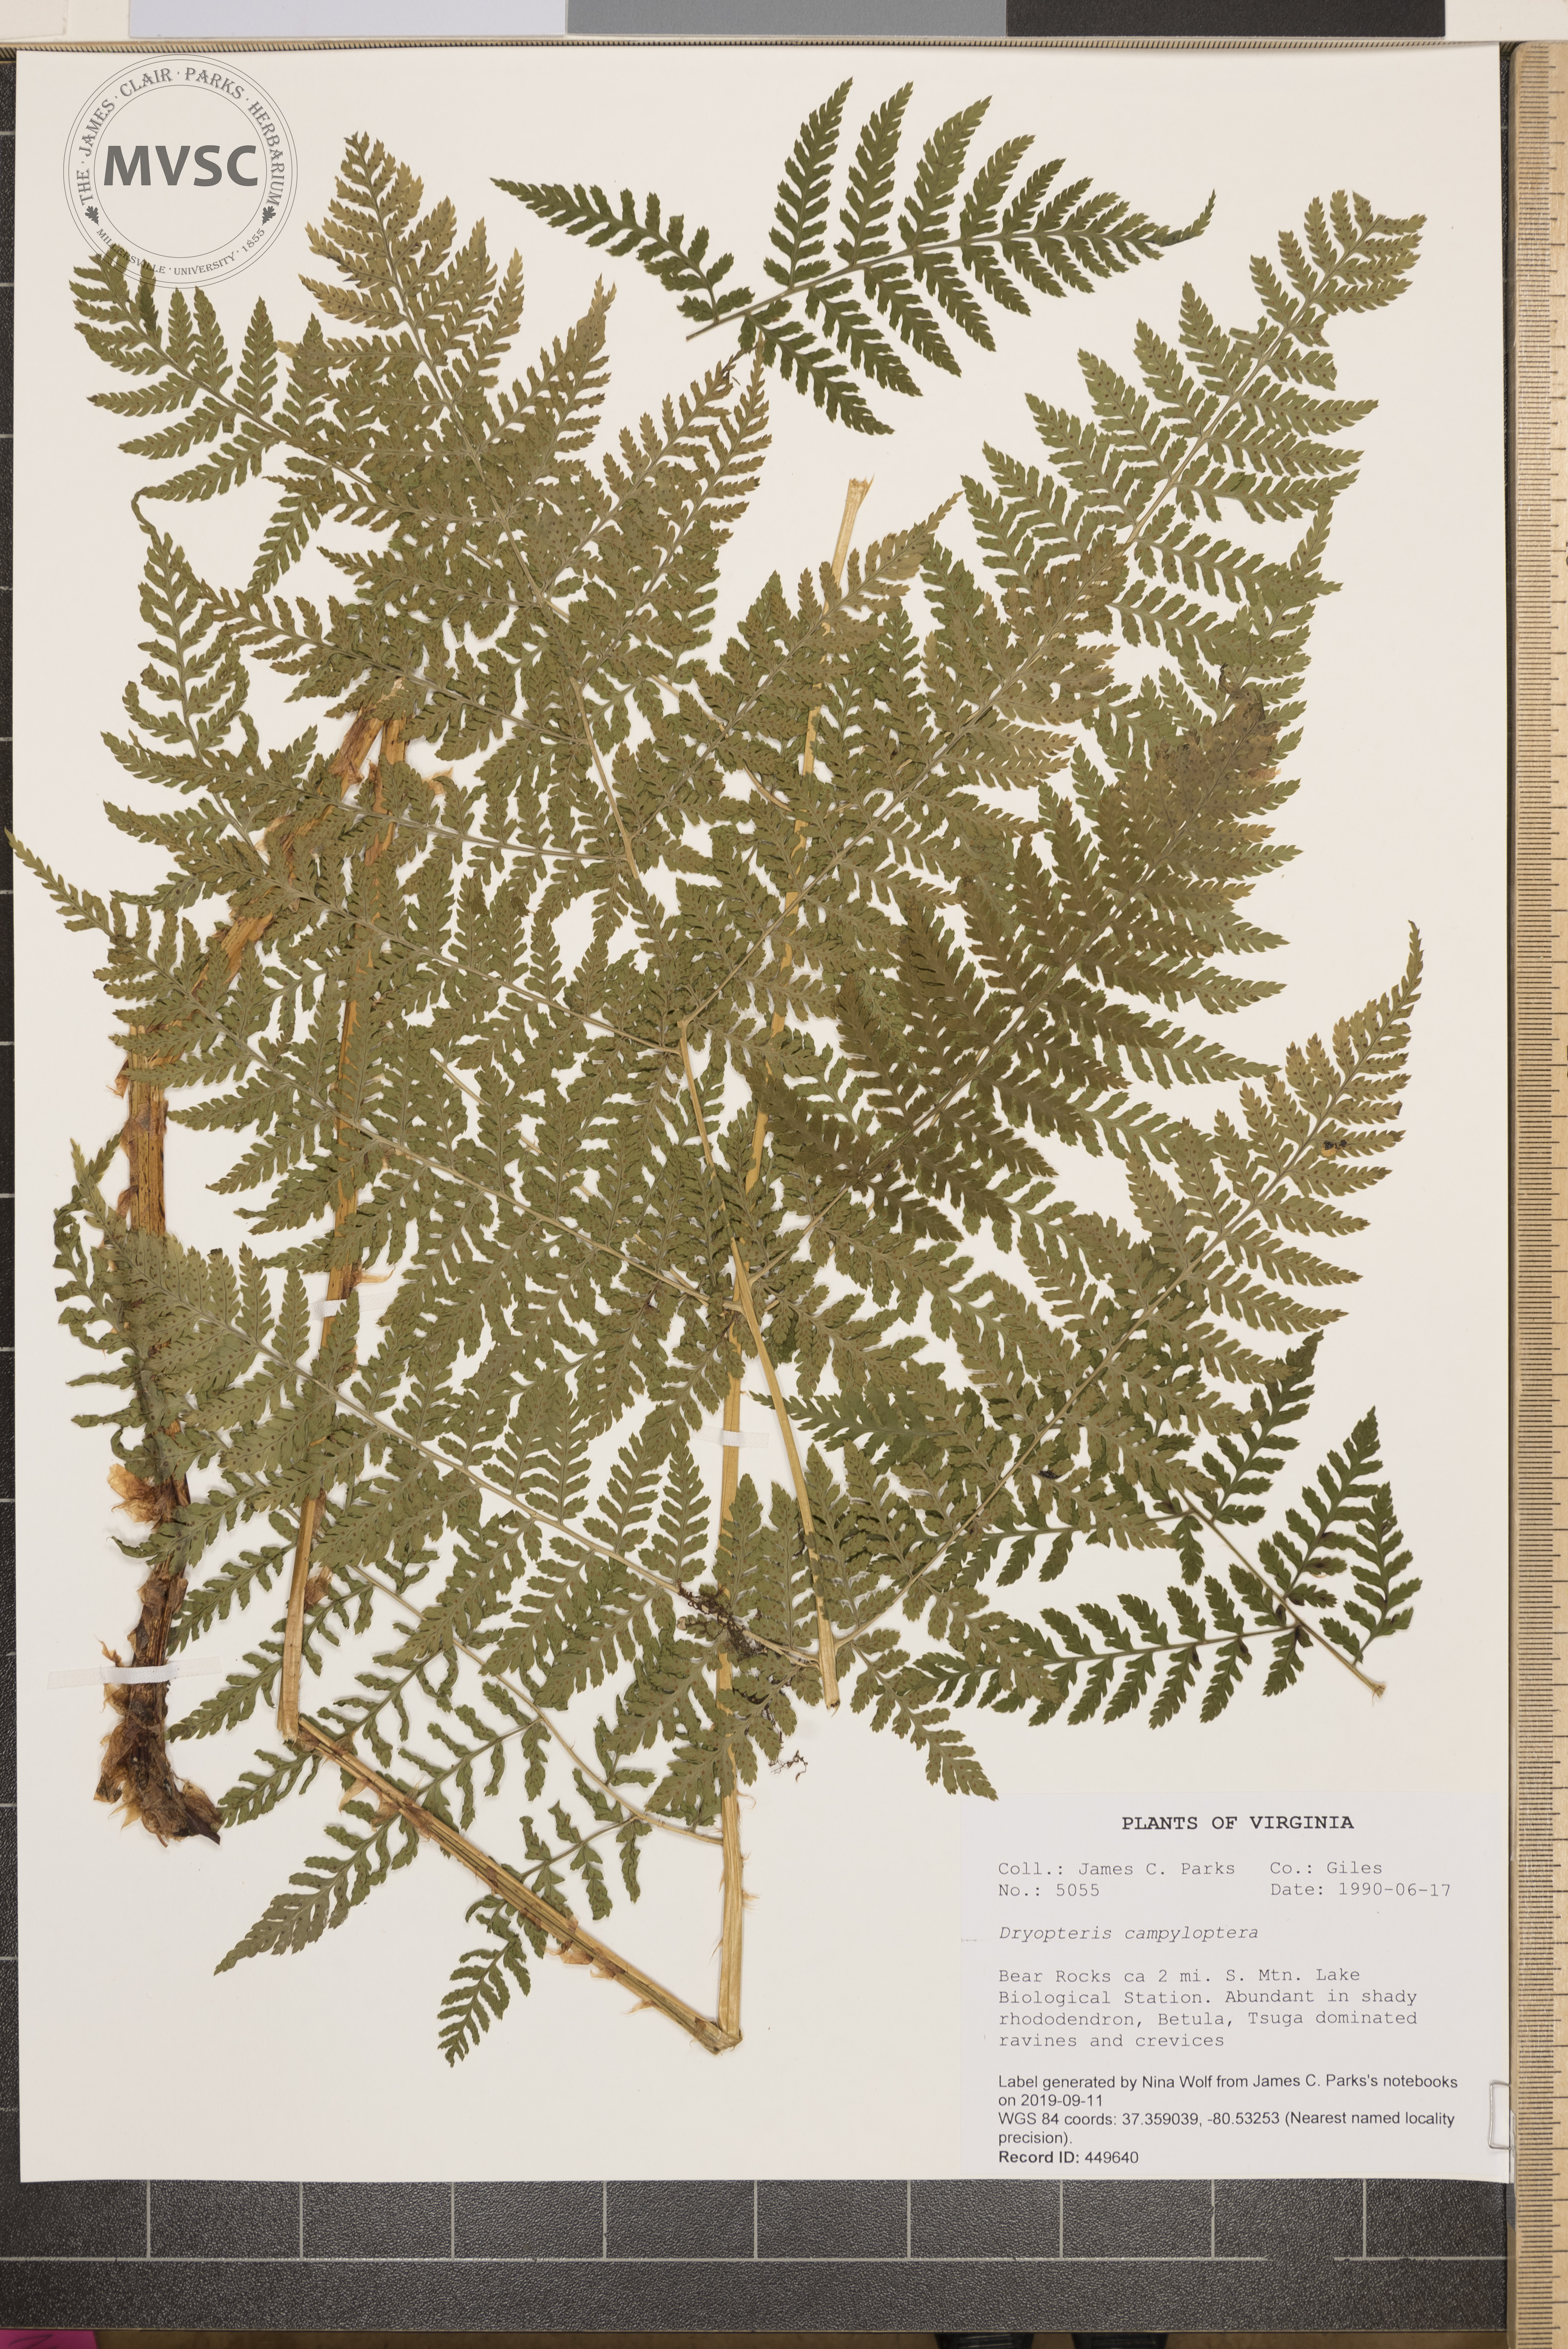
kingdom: Plantae
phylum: Tracheophyta
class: Polypodiopsida
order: Polypodiales
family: Dryopteridaceae
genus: Dryopteris
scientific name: Dryopteris campyloptera
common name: Mountain wood fern
